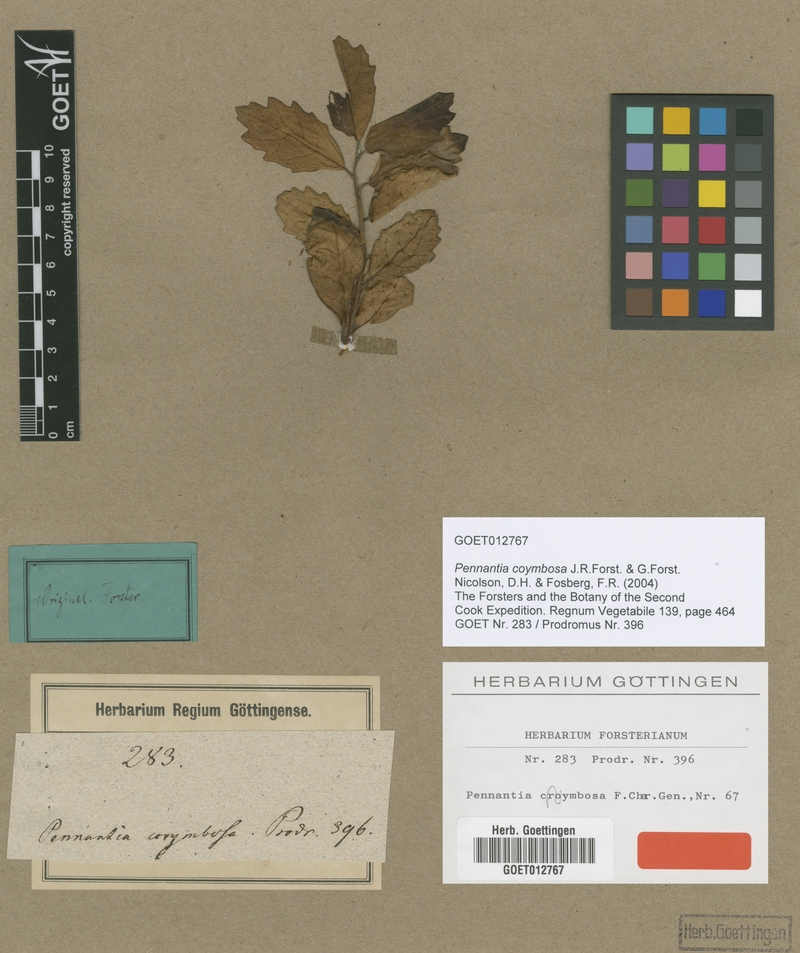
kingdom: Plantae
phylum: Tracheophyta
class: Magnoliopsida
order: Apiales
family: Pennantiaceae
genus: Pennantia
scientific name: Pennantia corymbosa
